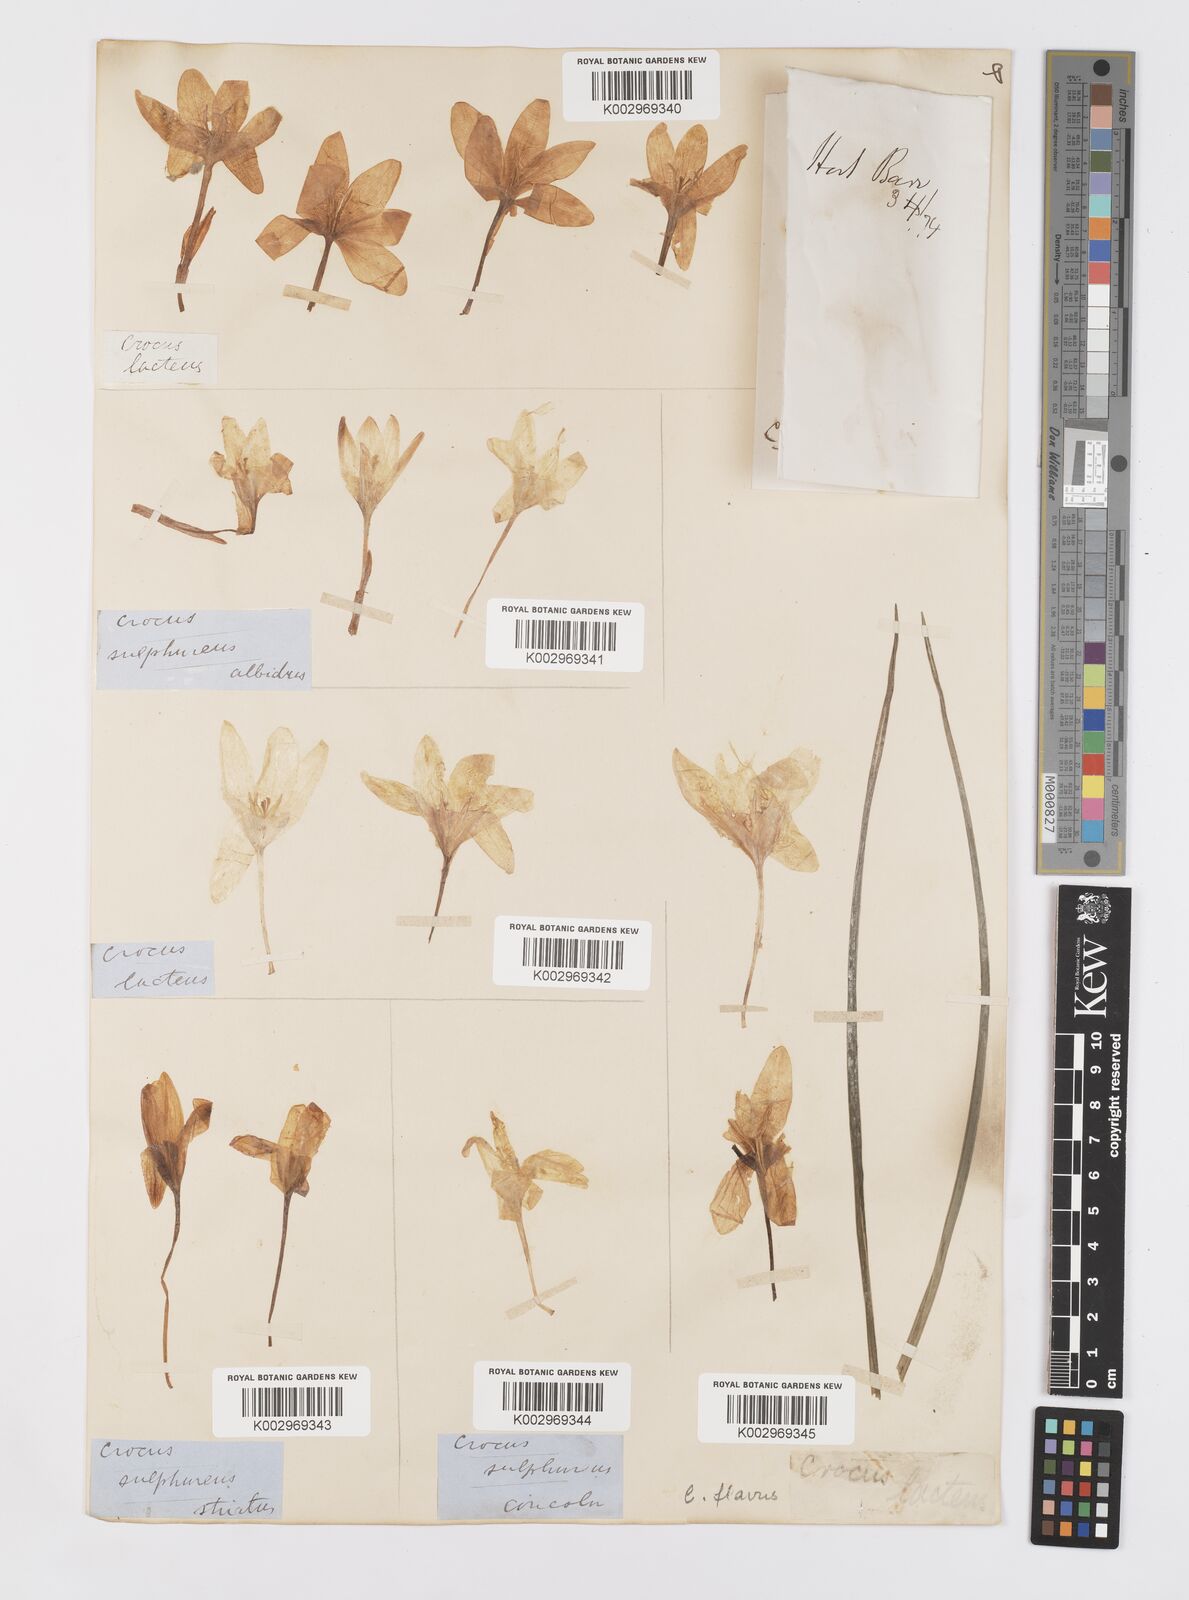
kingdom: Plantae
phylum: Tracheophyta
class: Liliopsida
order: Asparagales
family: Iridaceae
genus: Crocus
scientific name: Crocus flavus
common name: Yellow crocus
